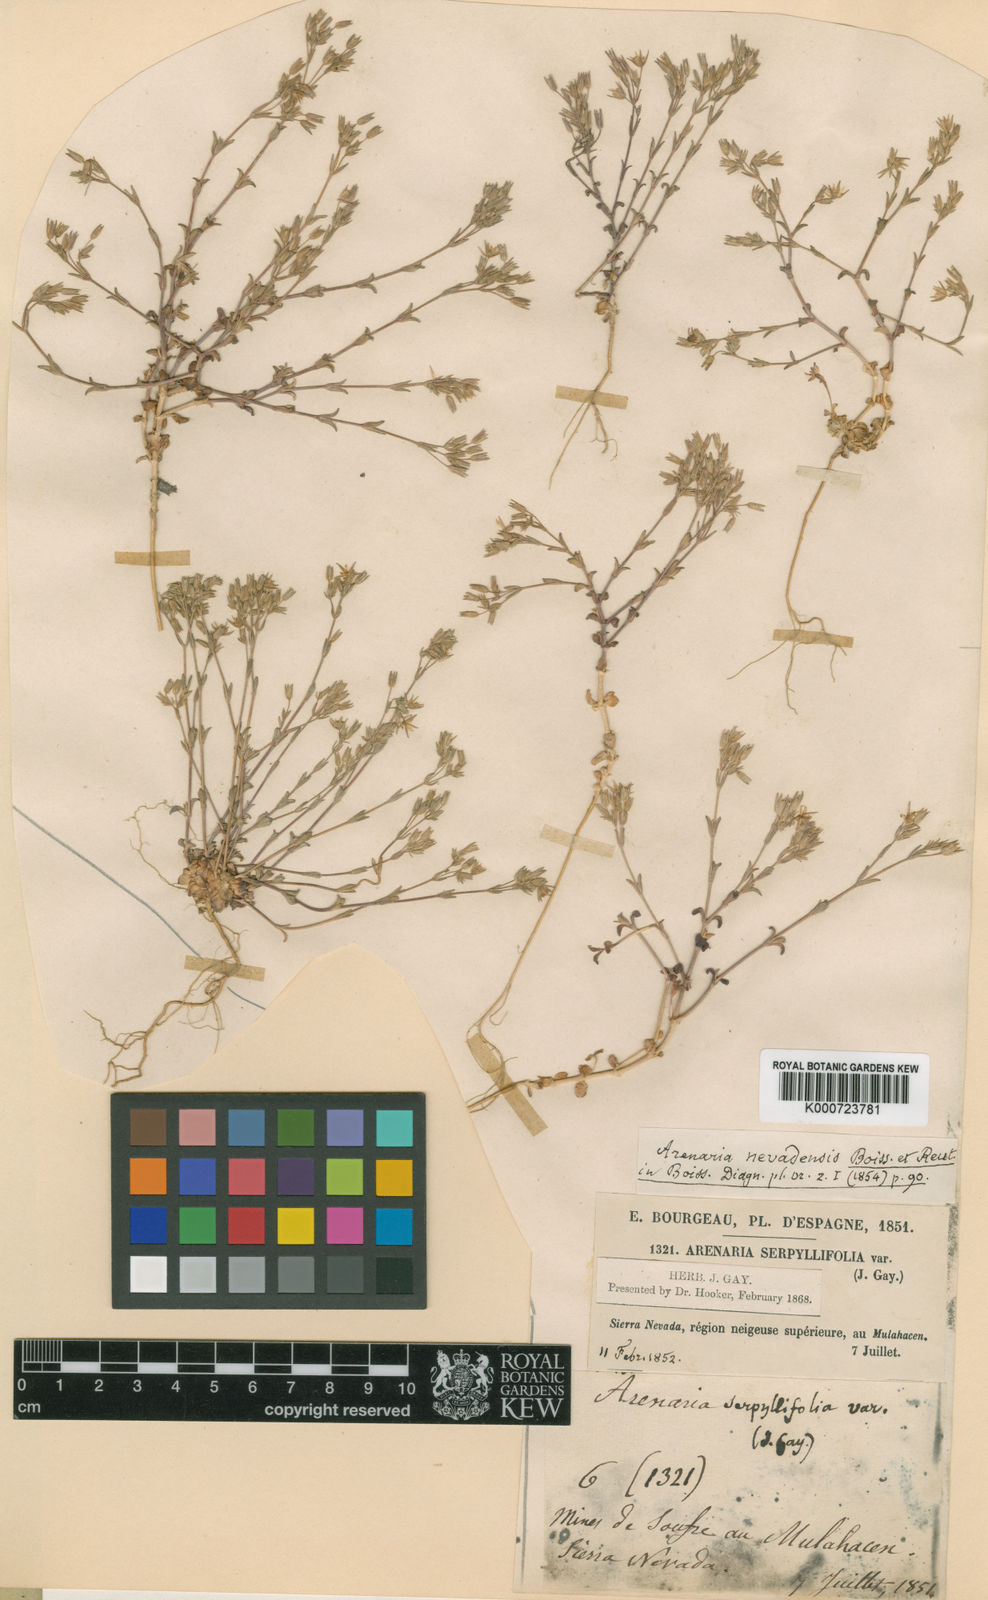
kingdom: Plantae
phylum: Tracheophyta
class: Magnoliopsida
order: Caryophyllales
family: Caryophyllaceae
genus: Arenaria
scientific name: Arenaria nevadensis
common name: Sierra nevada sandwort
